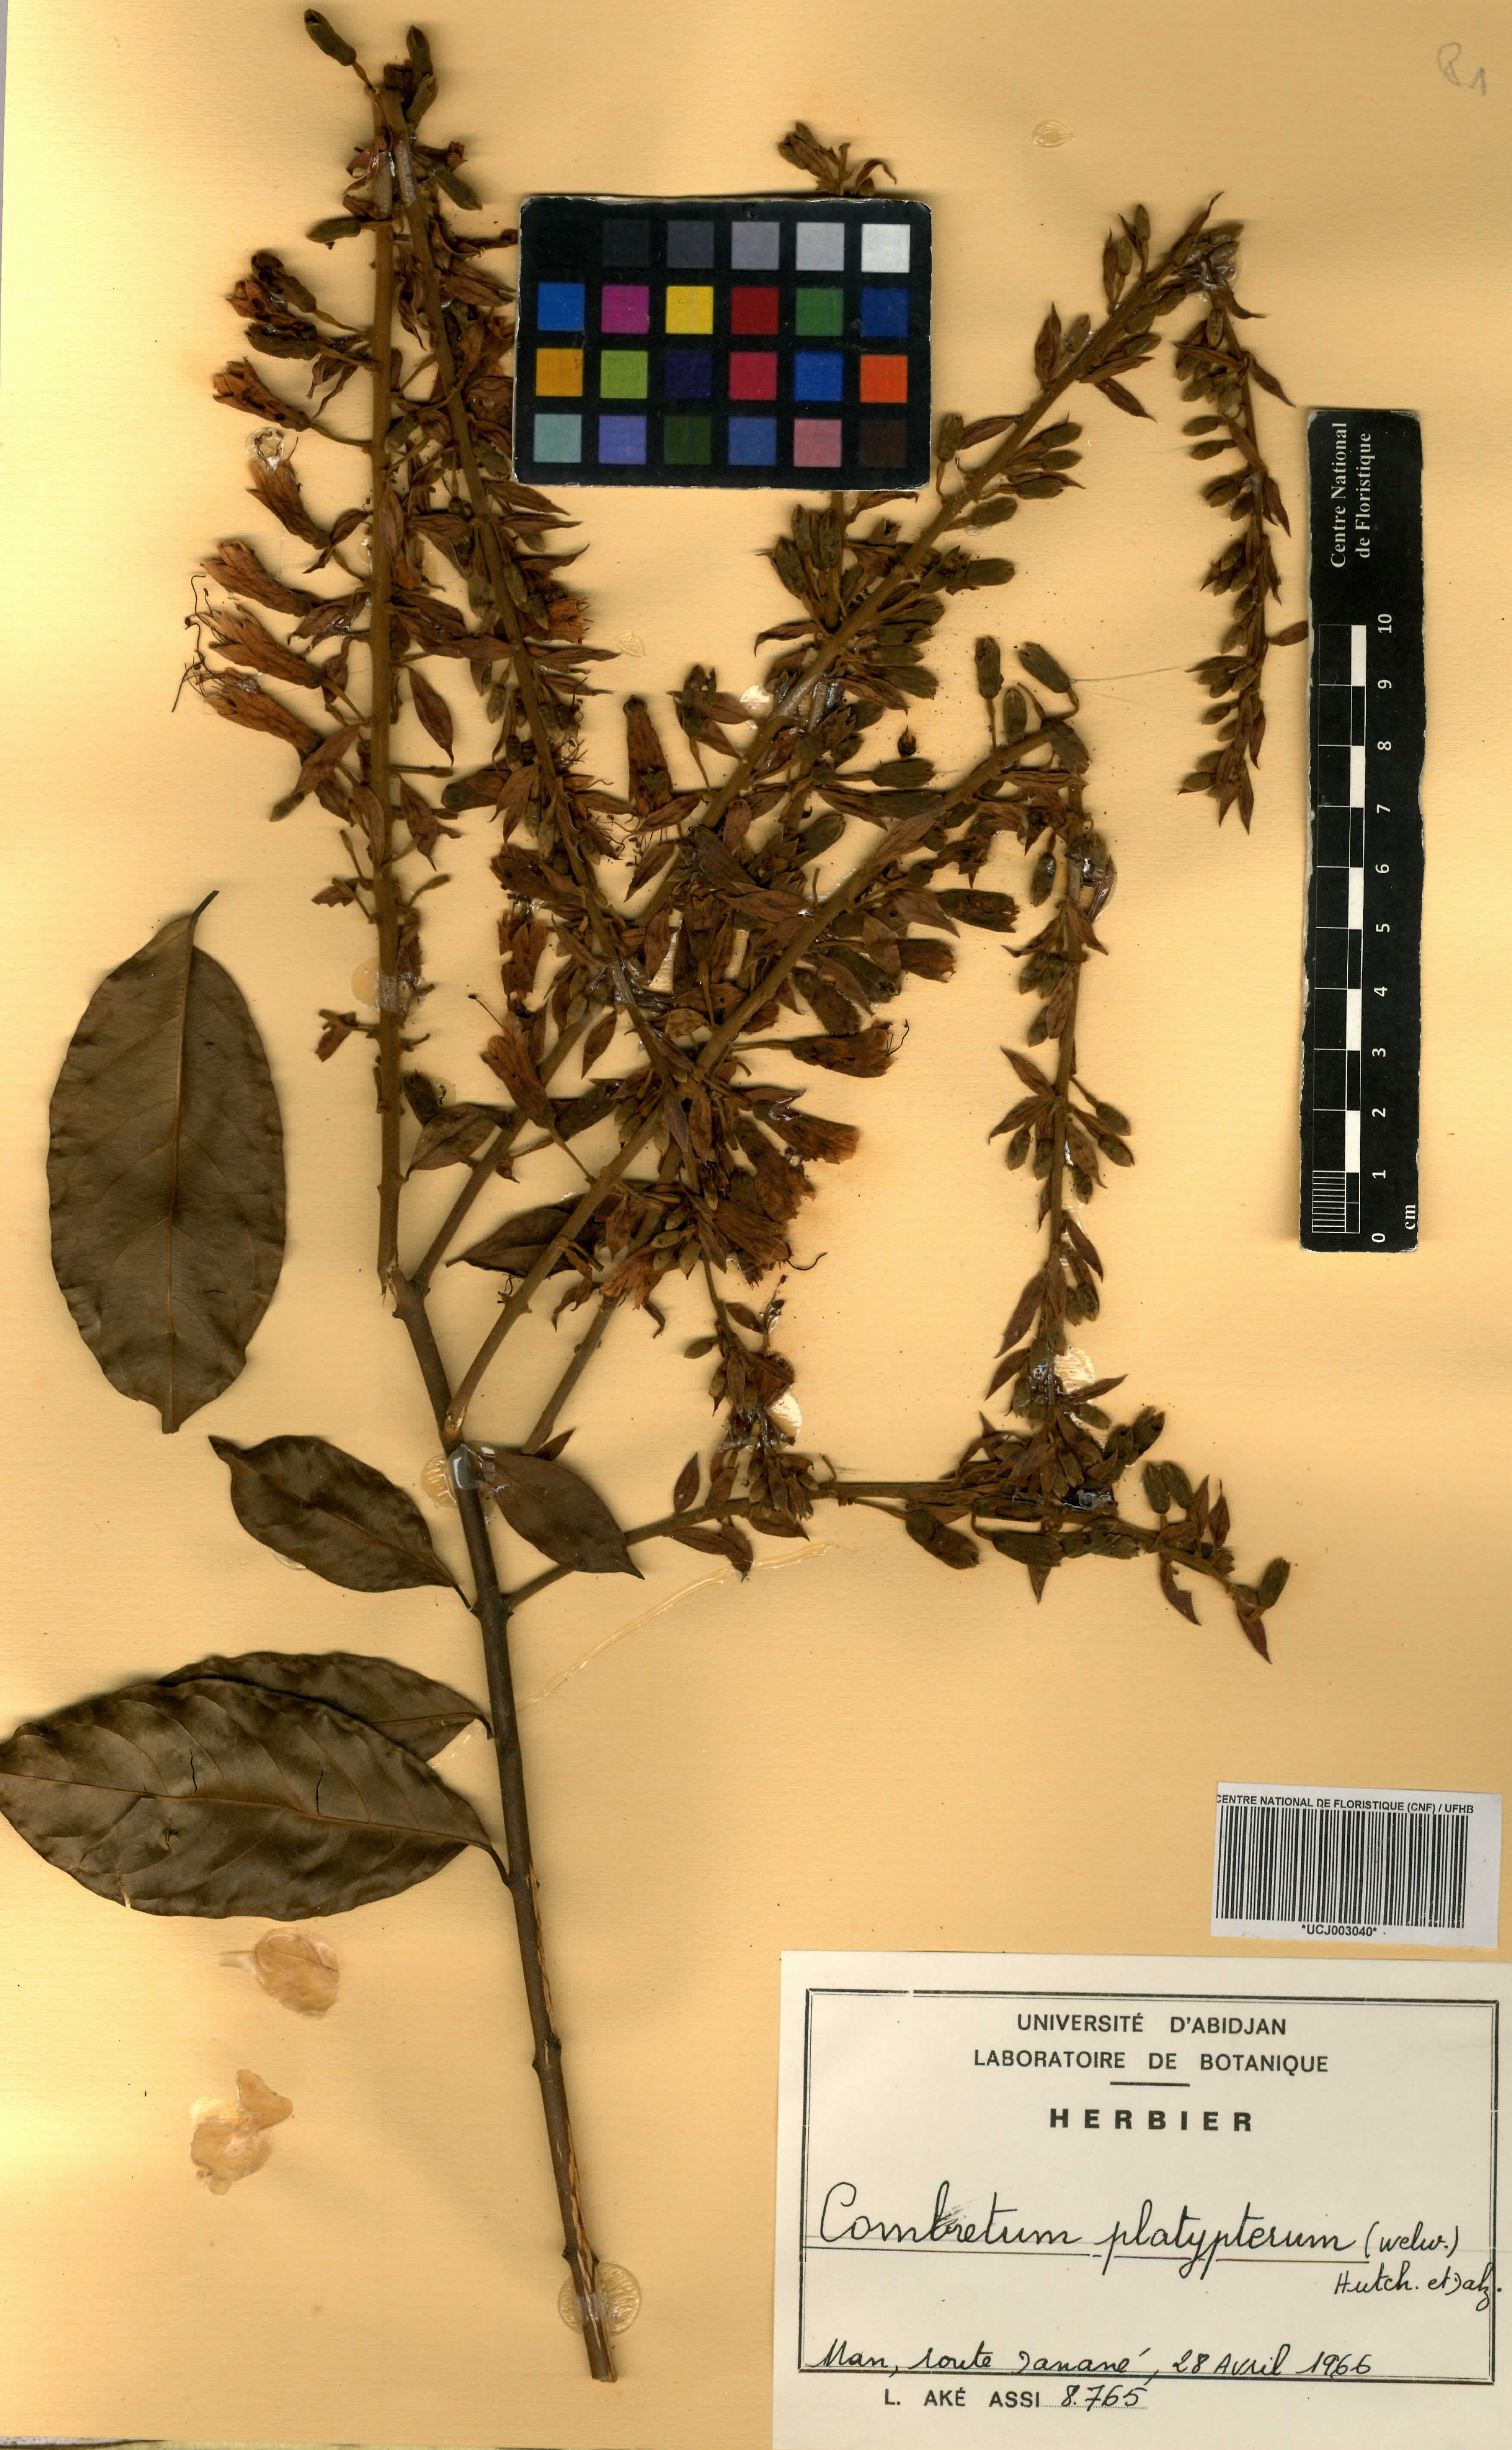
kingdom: Plantae
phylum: Tracheophyta
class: Magnoliopsida
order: Myrtales
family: Combretaceae
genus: Combretum
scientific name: Combretum platypterum
